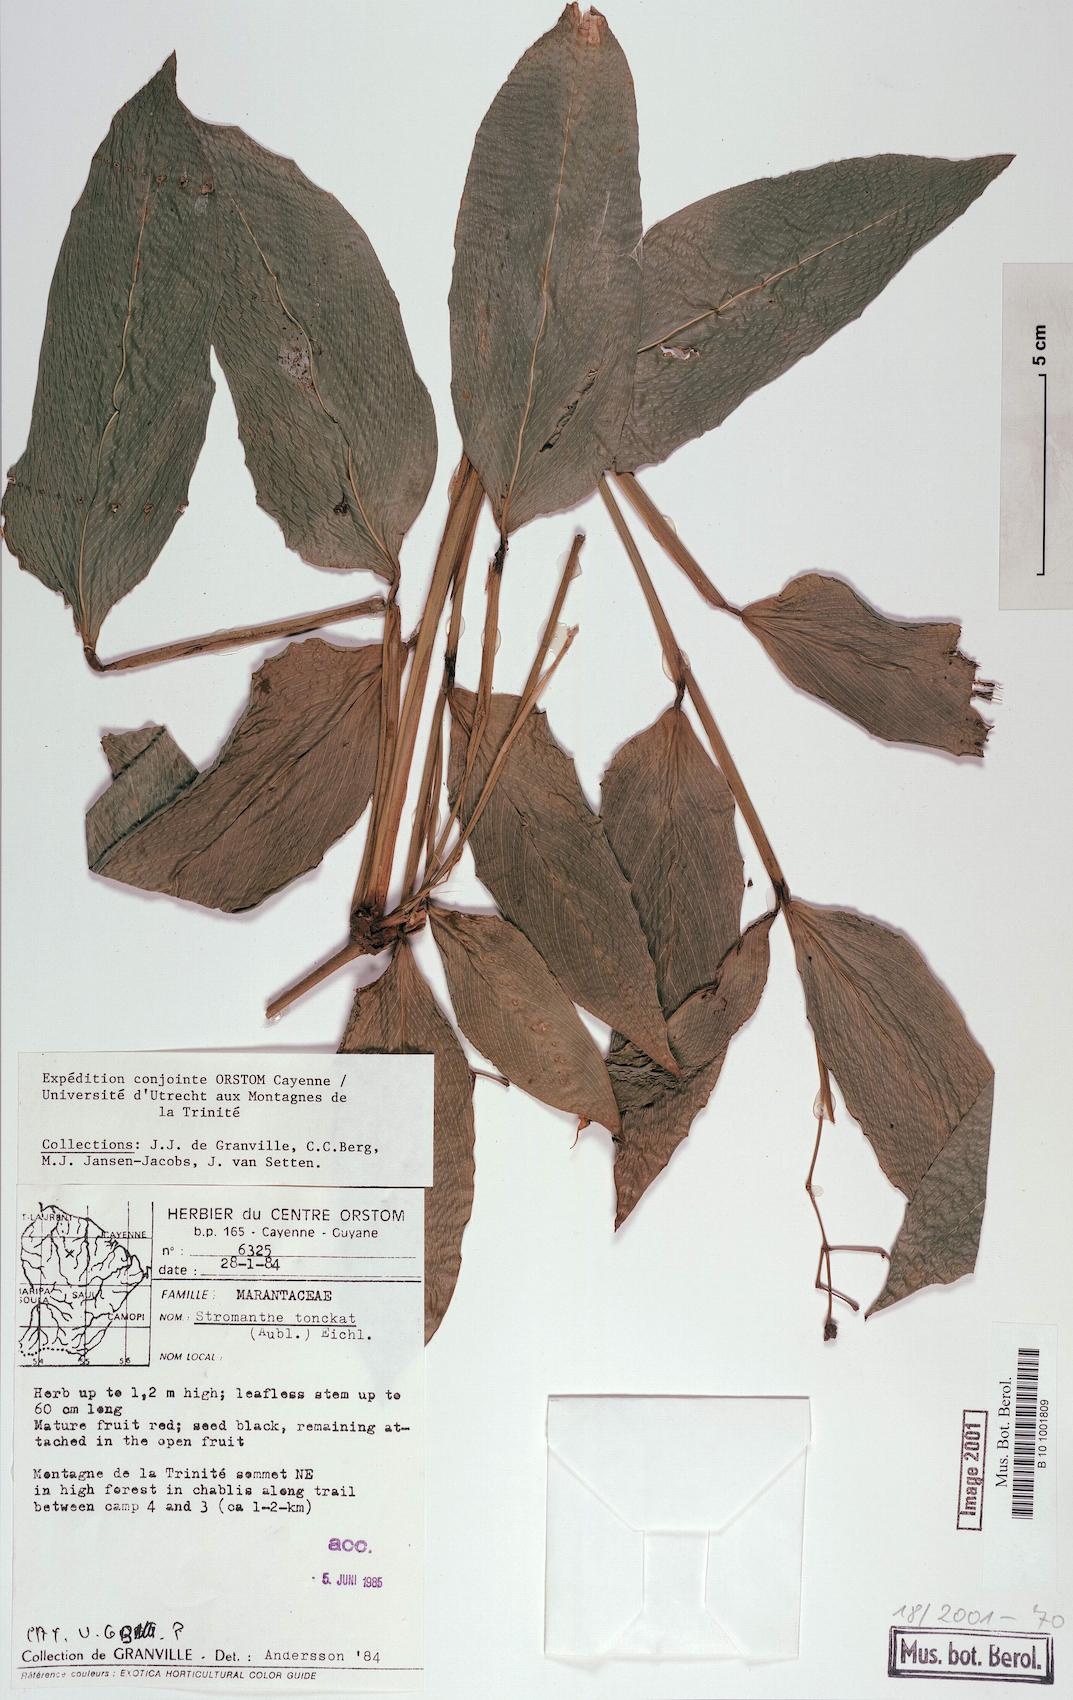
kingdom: Plantae
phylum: Tracheophyta
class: Liliopsida
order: Zingiberales
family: Marantaceae
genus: Stromanthe
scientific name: Stromanthe tonckat
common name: Stromanthe
